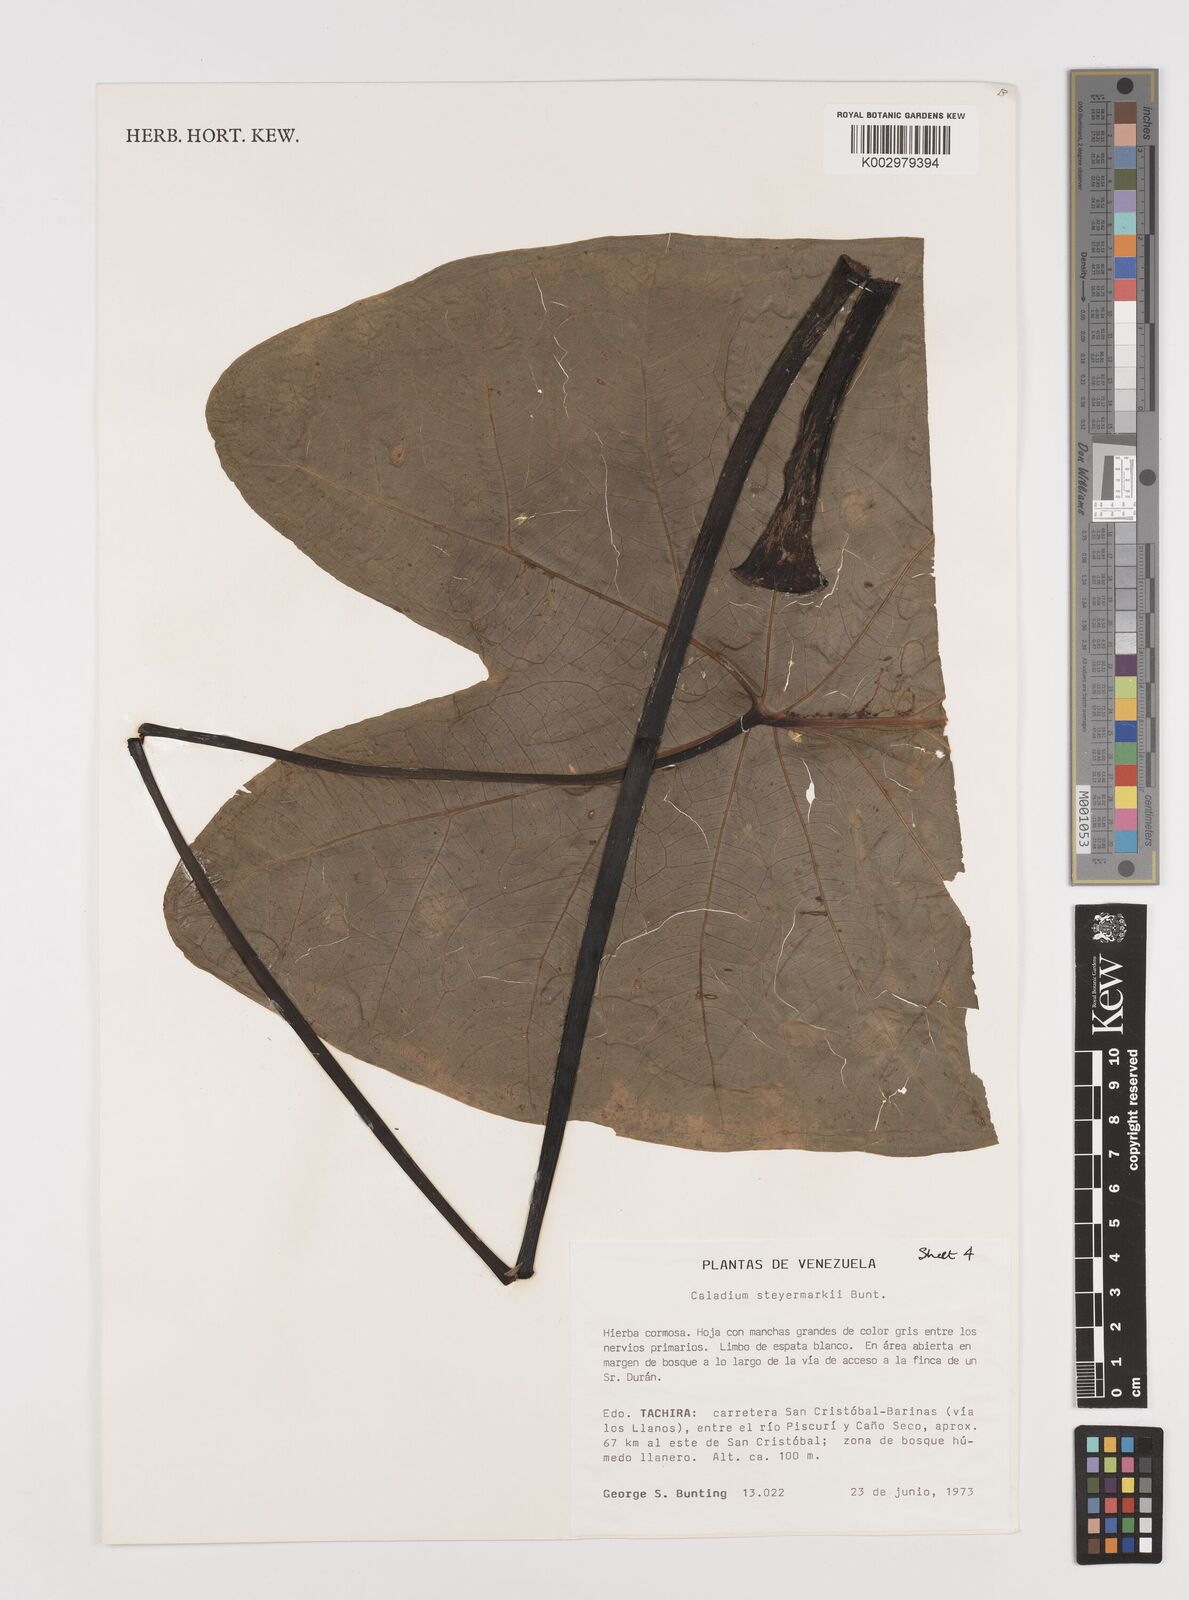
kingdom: Plantae
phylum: Tracheophyta
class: Liliopsida
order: Alismatales
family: Araceae
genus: Caladium
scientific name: Caladium steyermarkii
